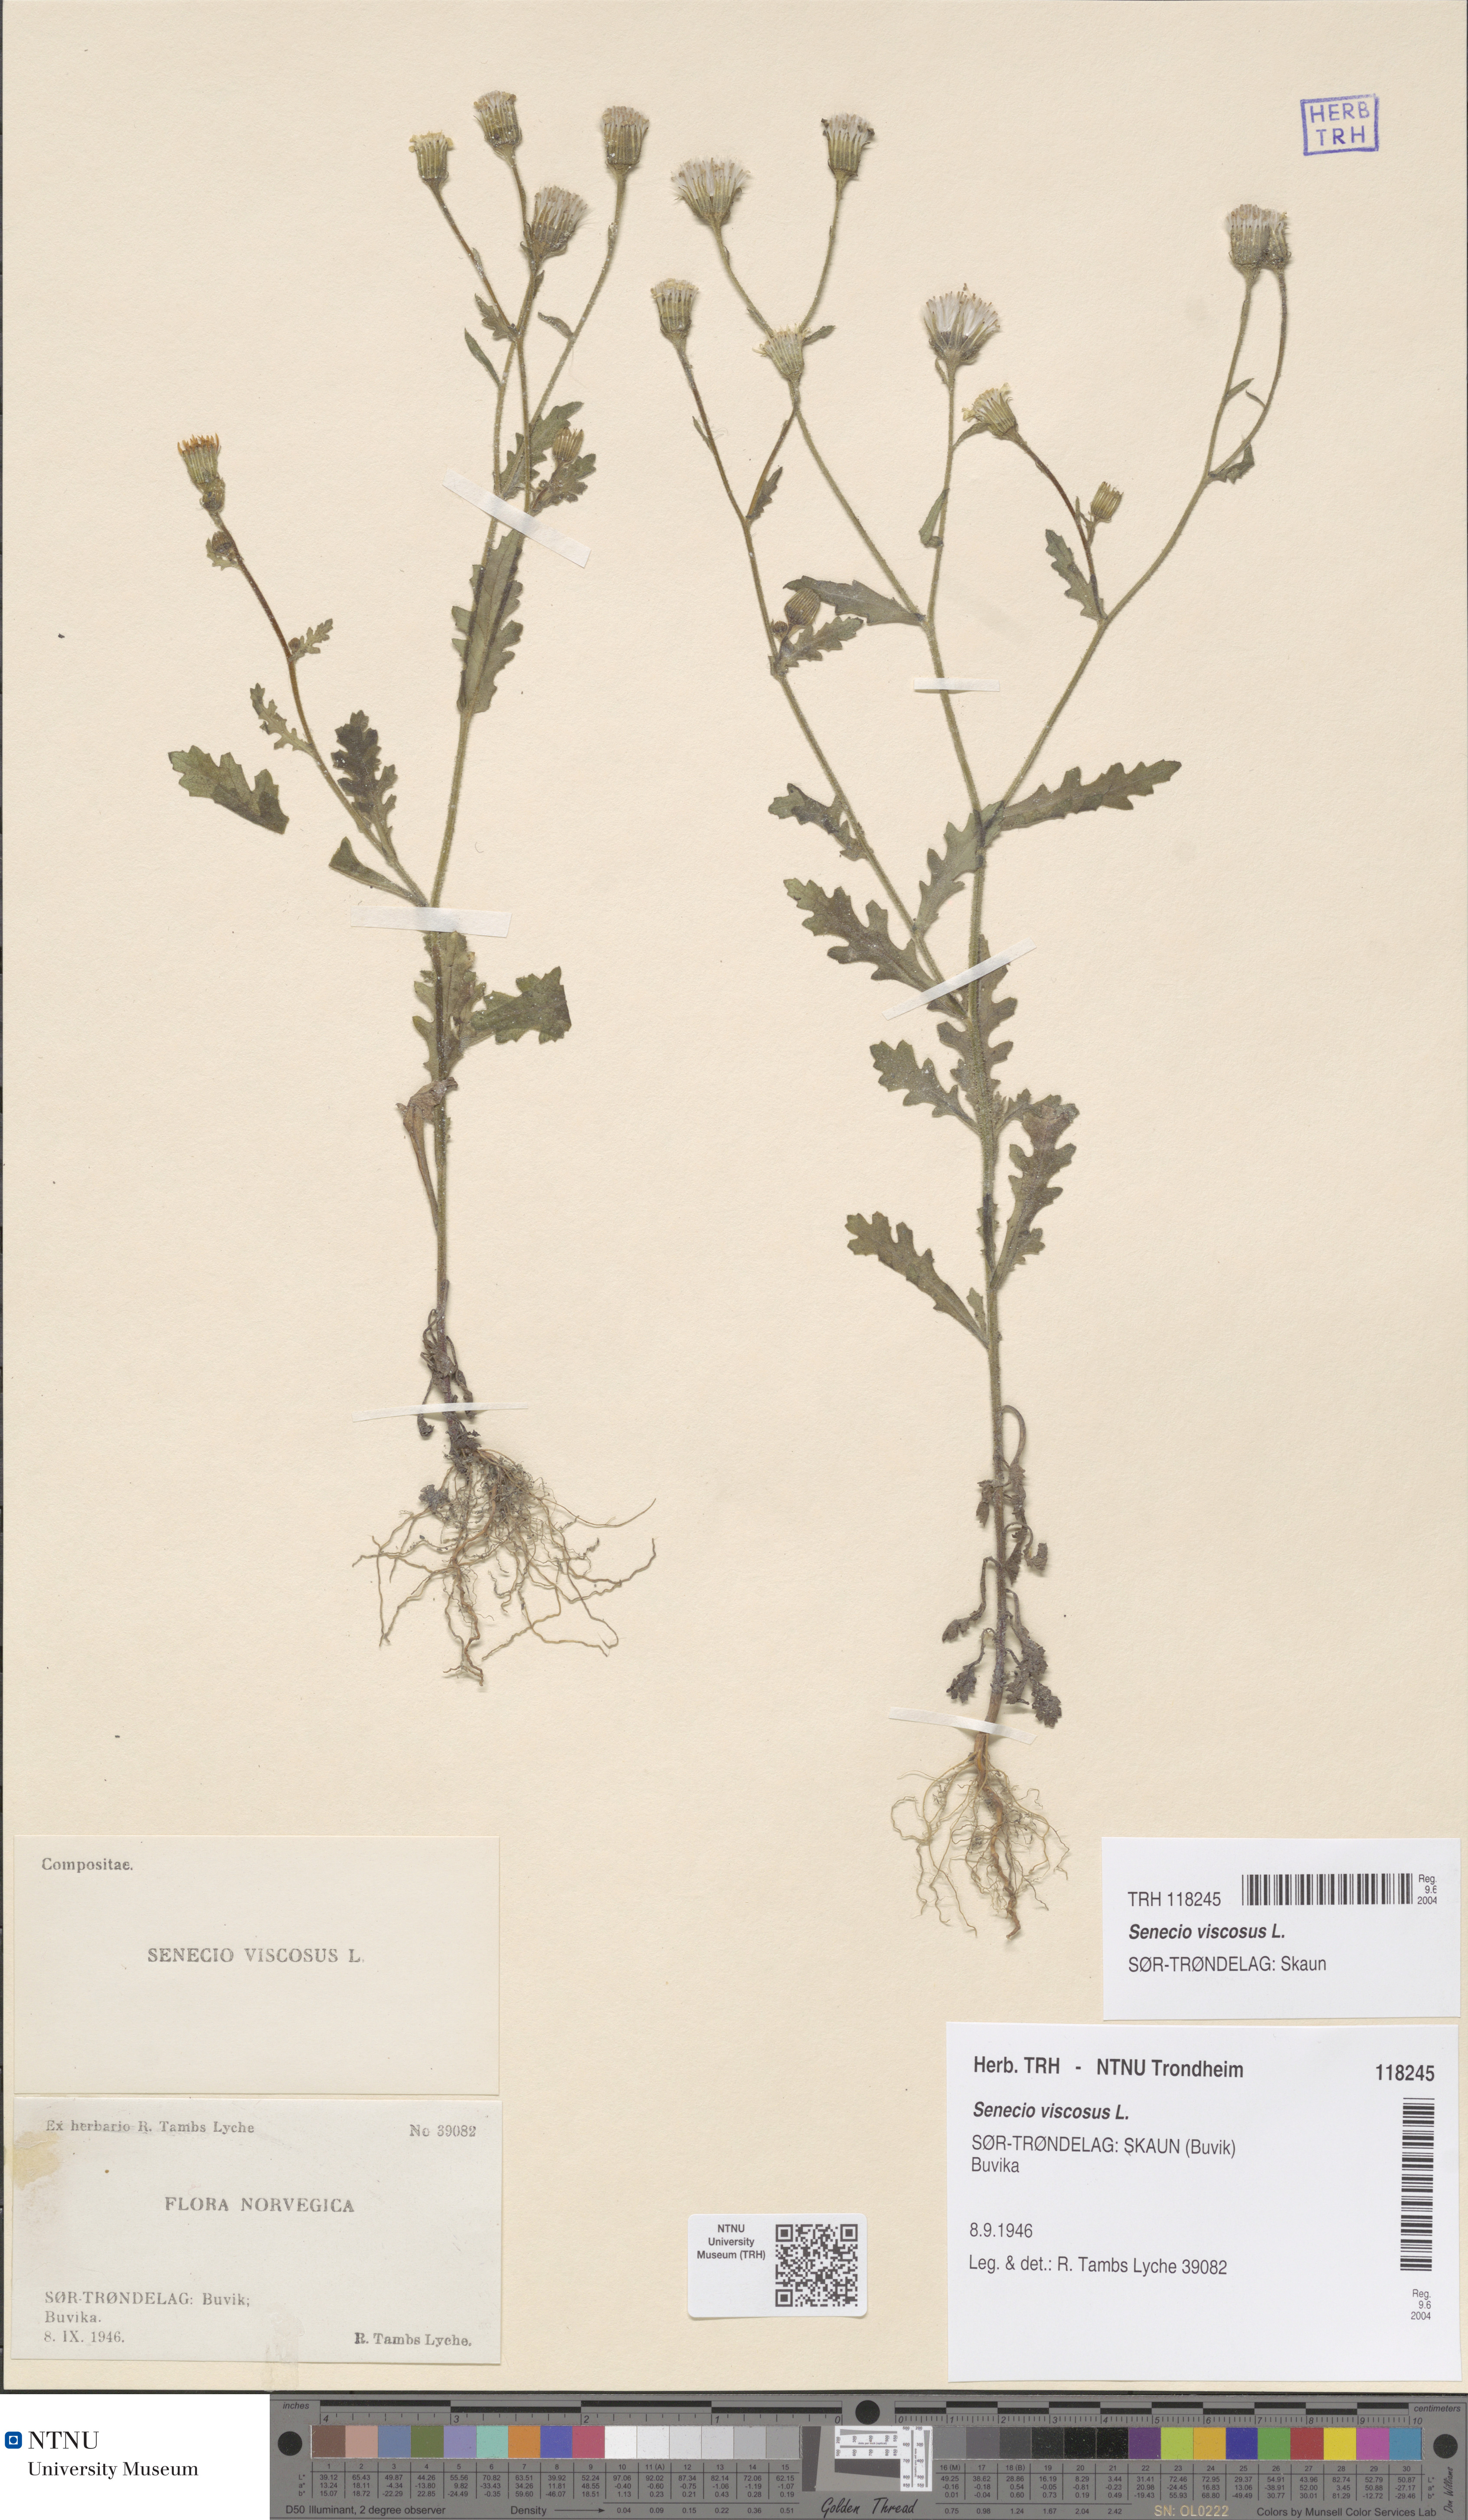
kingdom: Plantae
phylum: Tracheophyta
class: Magnoliopsida
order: Asterales
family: Asteraceae
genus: Senecio
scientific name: Senecio viscosus
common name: Sticky groundsel
